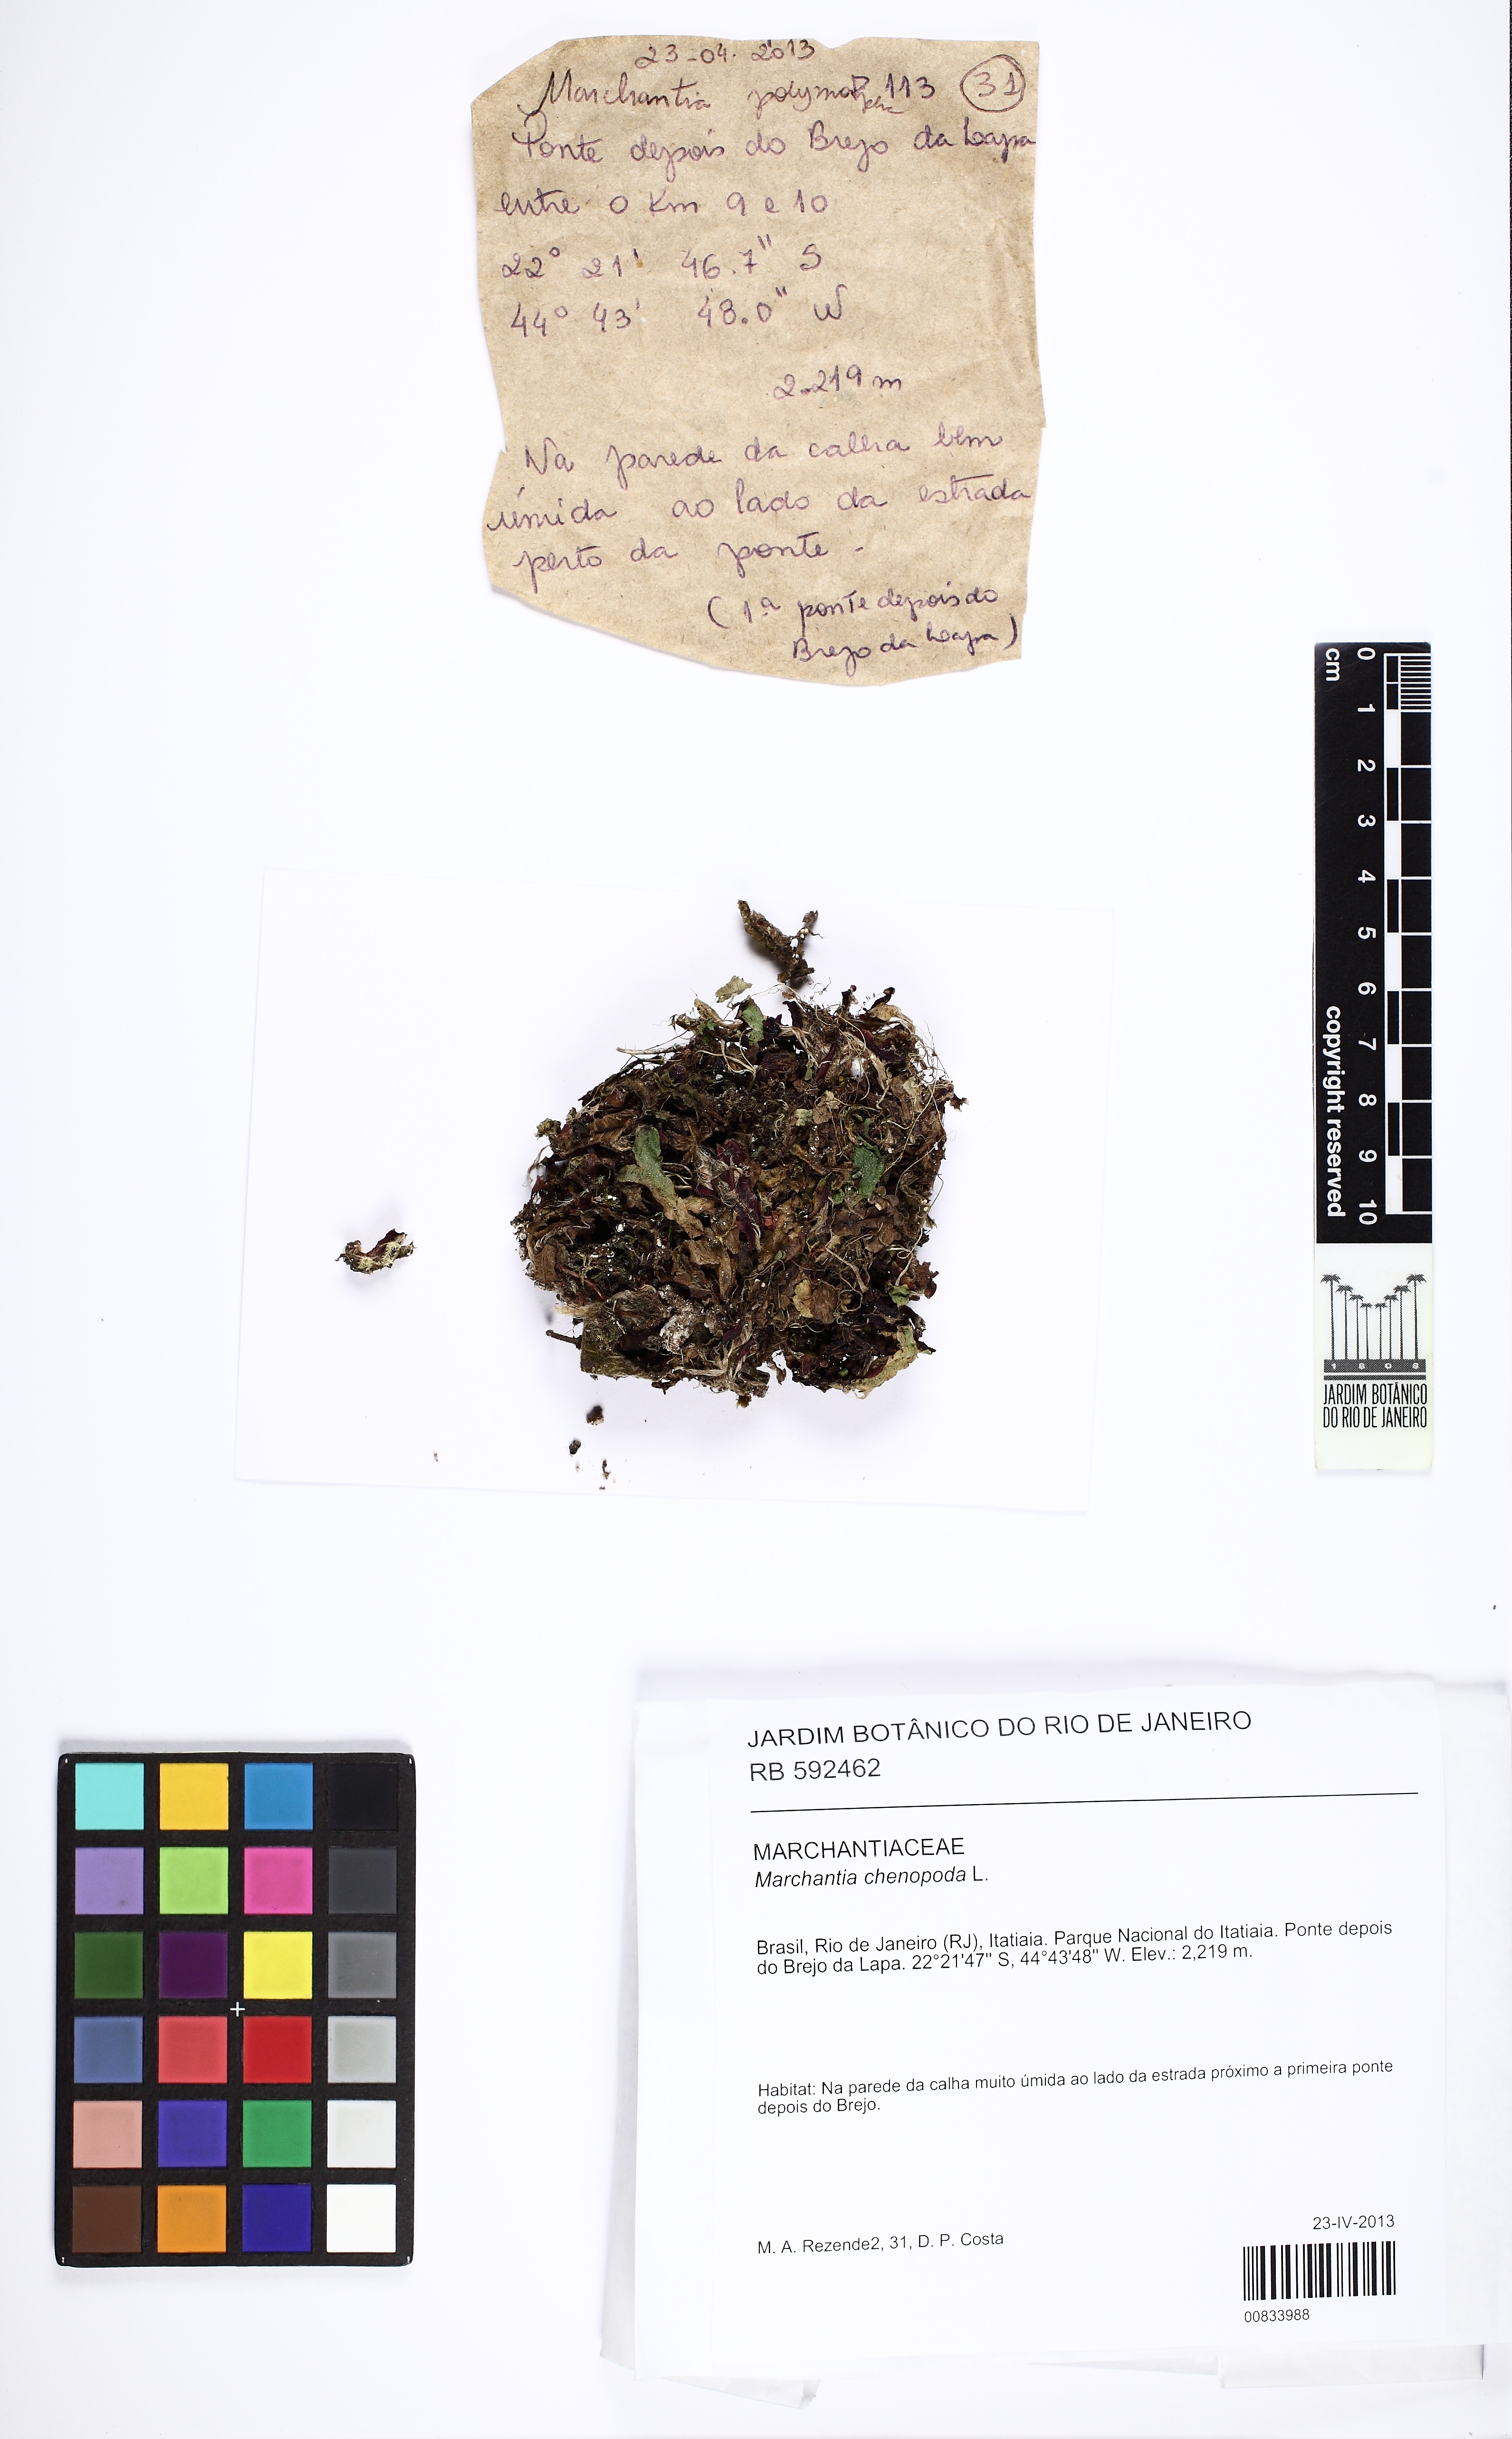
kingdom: Plantae
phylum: Marchantiophyta
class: Marchantiopsida
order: Marchantiales
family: Marchantiaceae
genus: Marchantia
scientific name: Marchantia chenopoda
